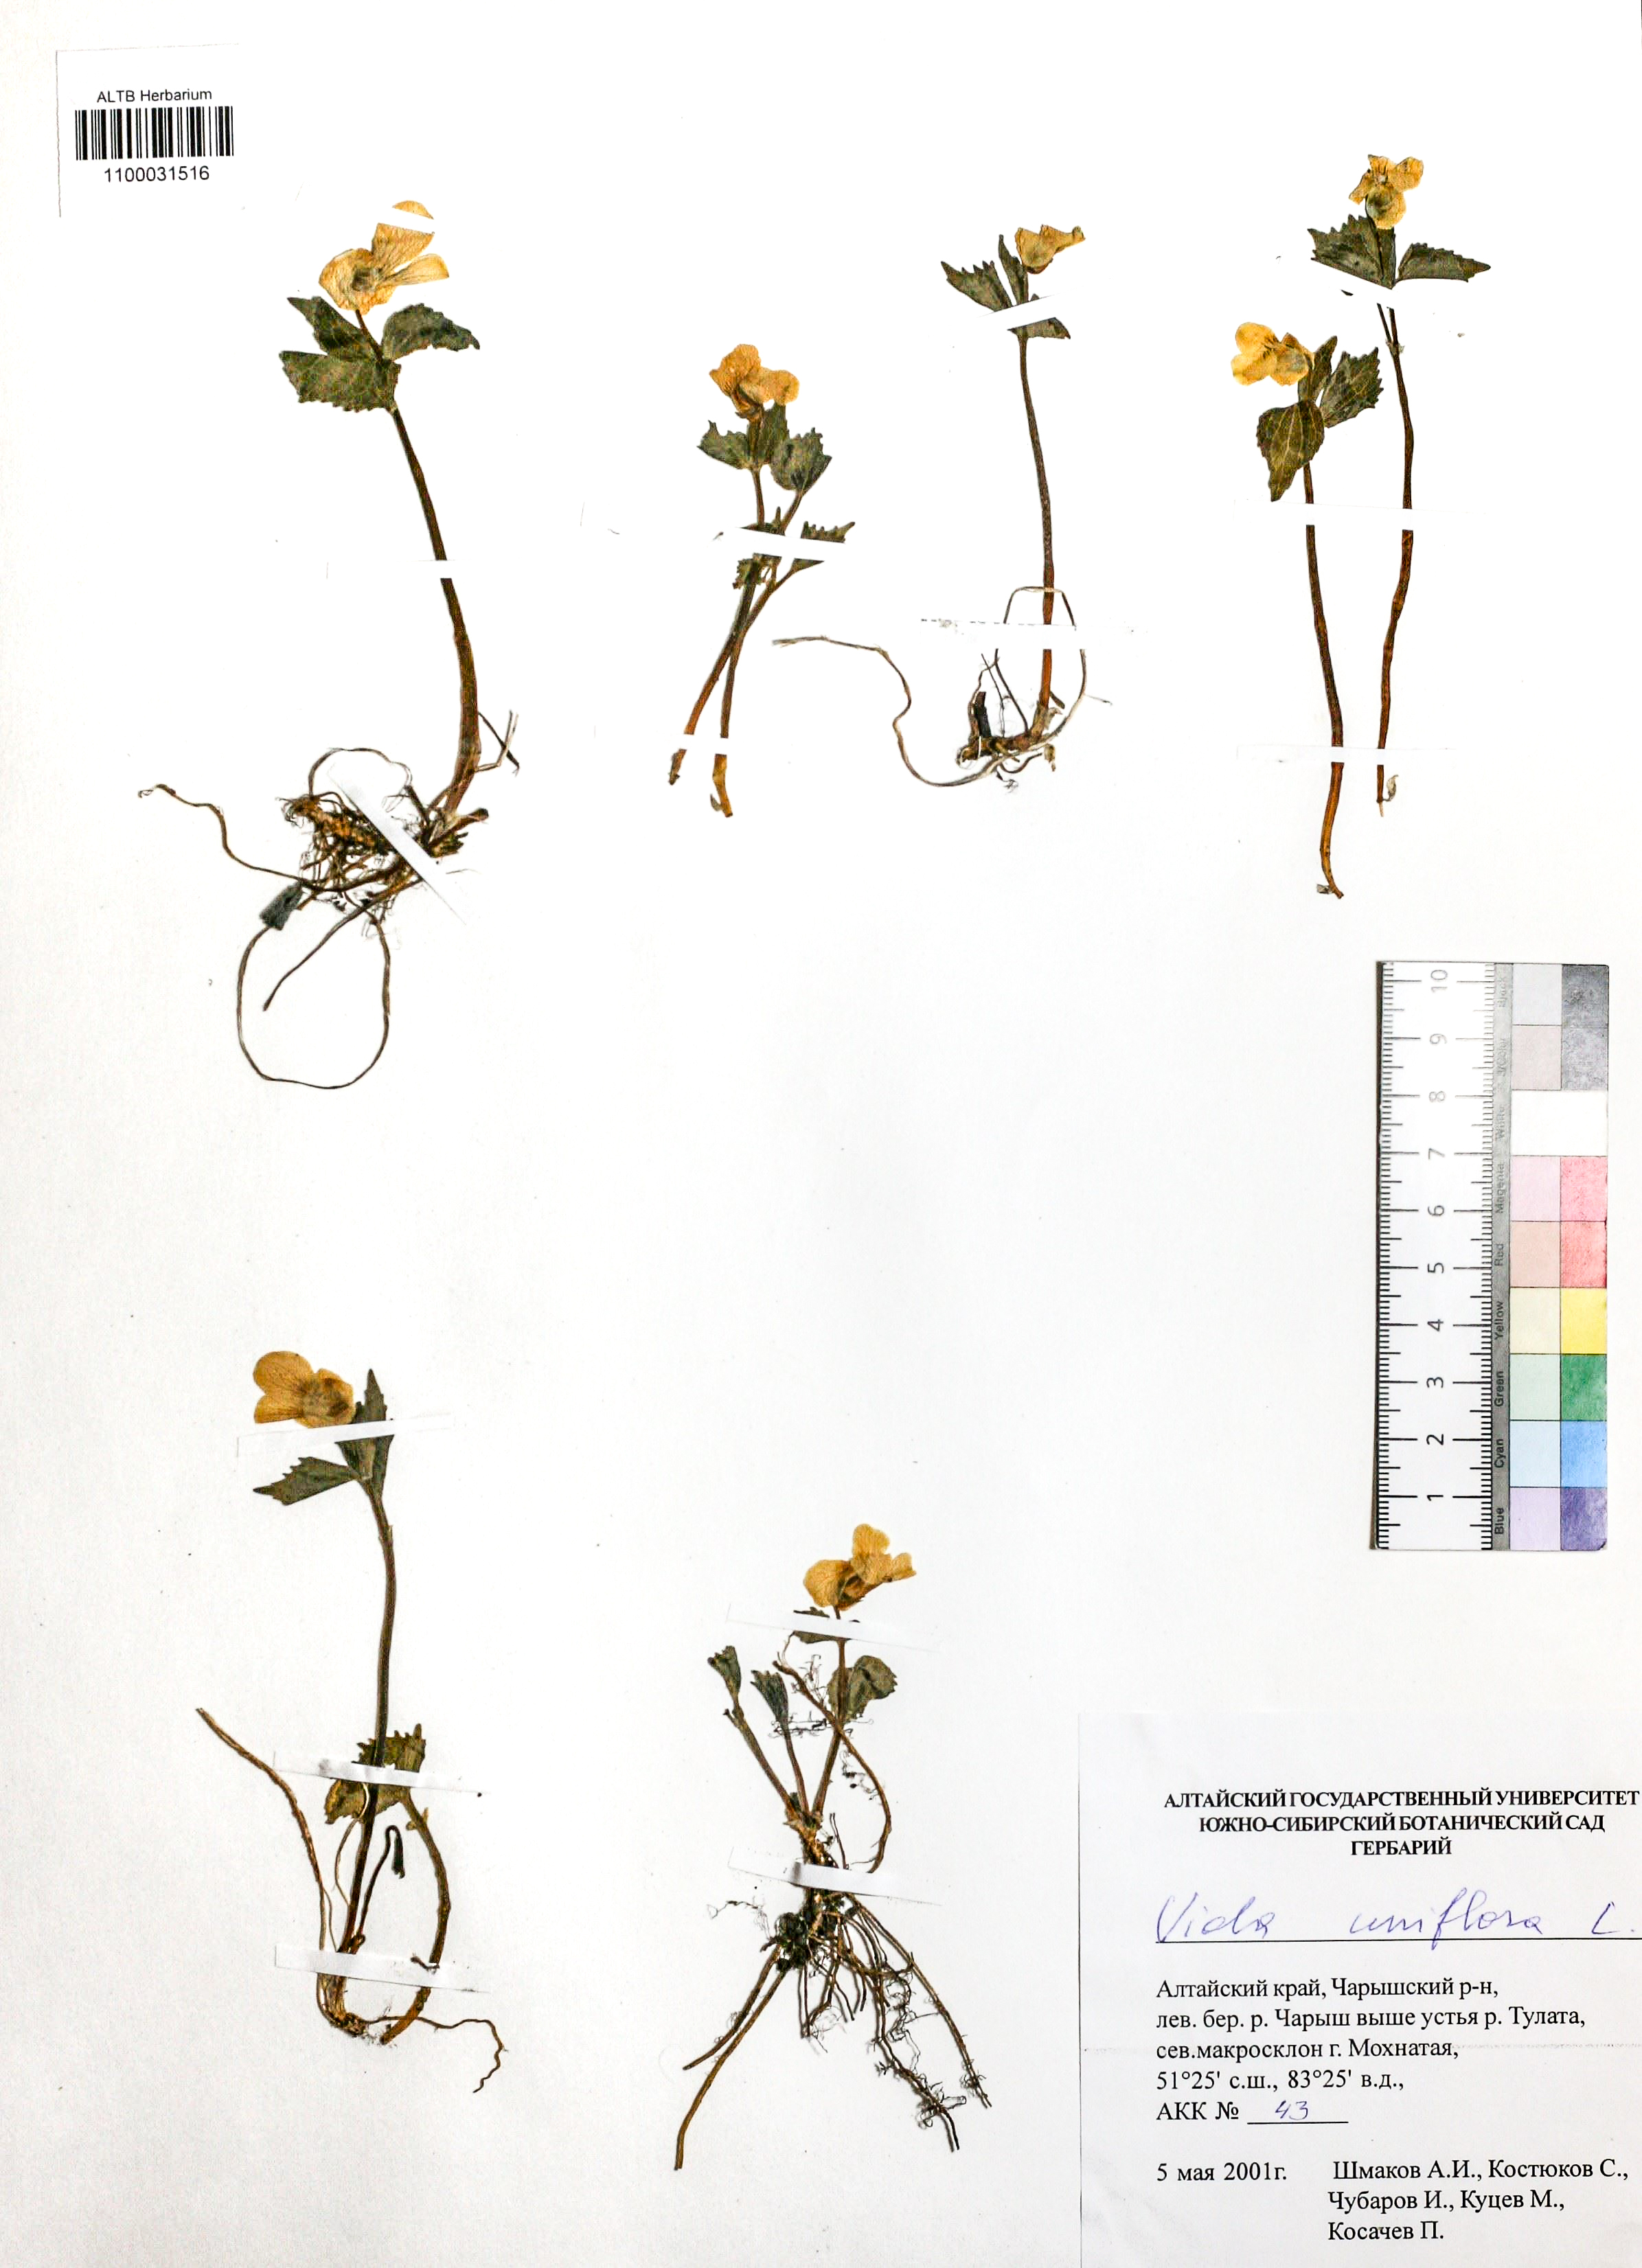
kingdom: Plantae
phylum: Tracheophyta
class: Magnoliopsida
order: Malpighiales
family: Violaceae
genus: Viola
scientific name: Viola uniflora
